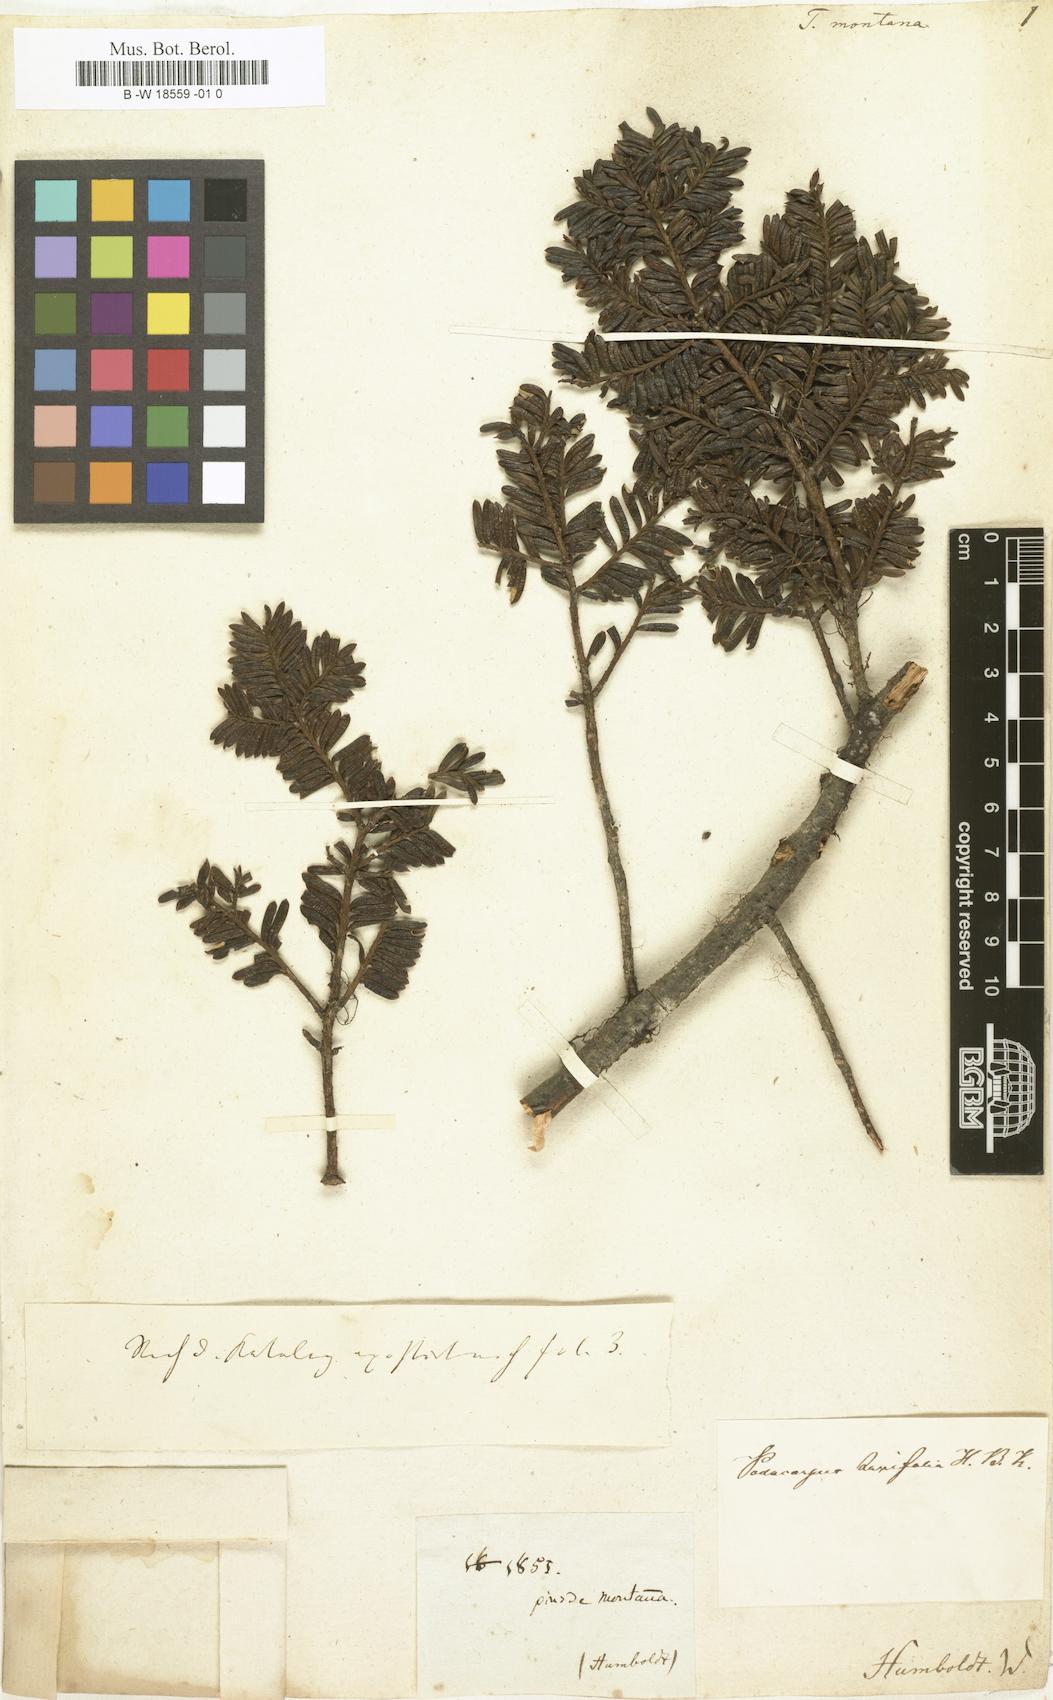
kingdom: Plantae
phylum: Tracheophyta
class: Pinopsida
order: Pinales
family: Taxaceae
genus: Torreya
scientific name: Torreya taxifolia
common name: Florida torreya
